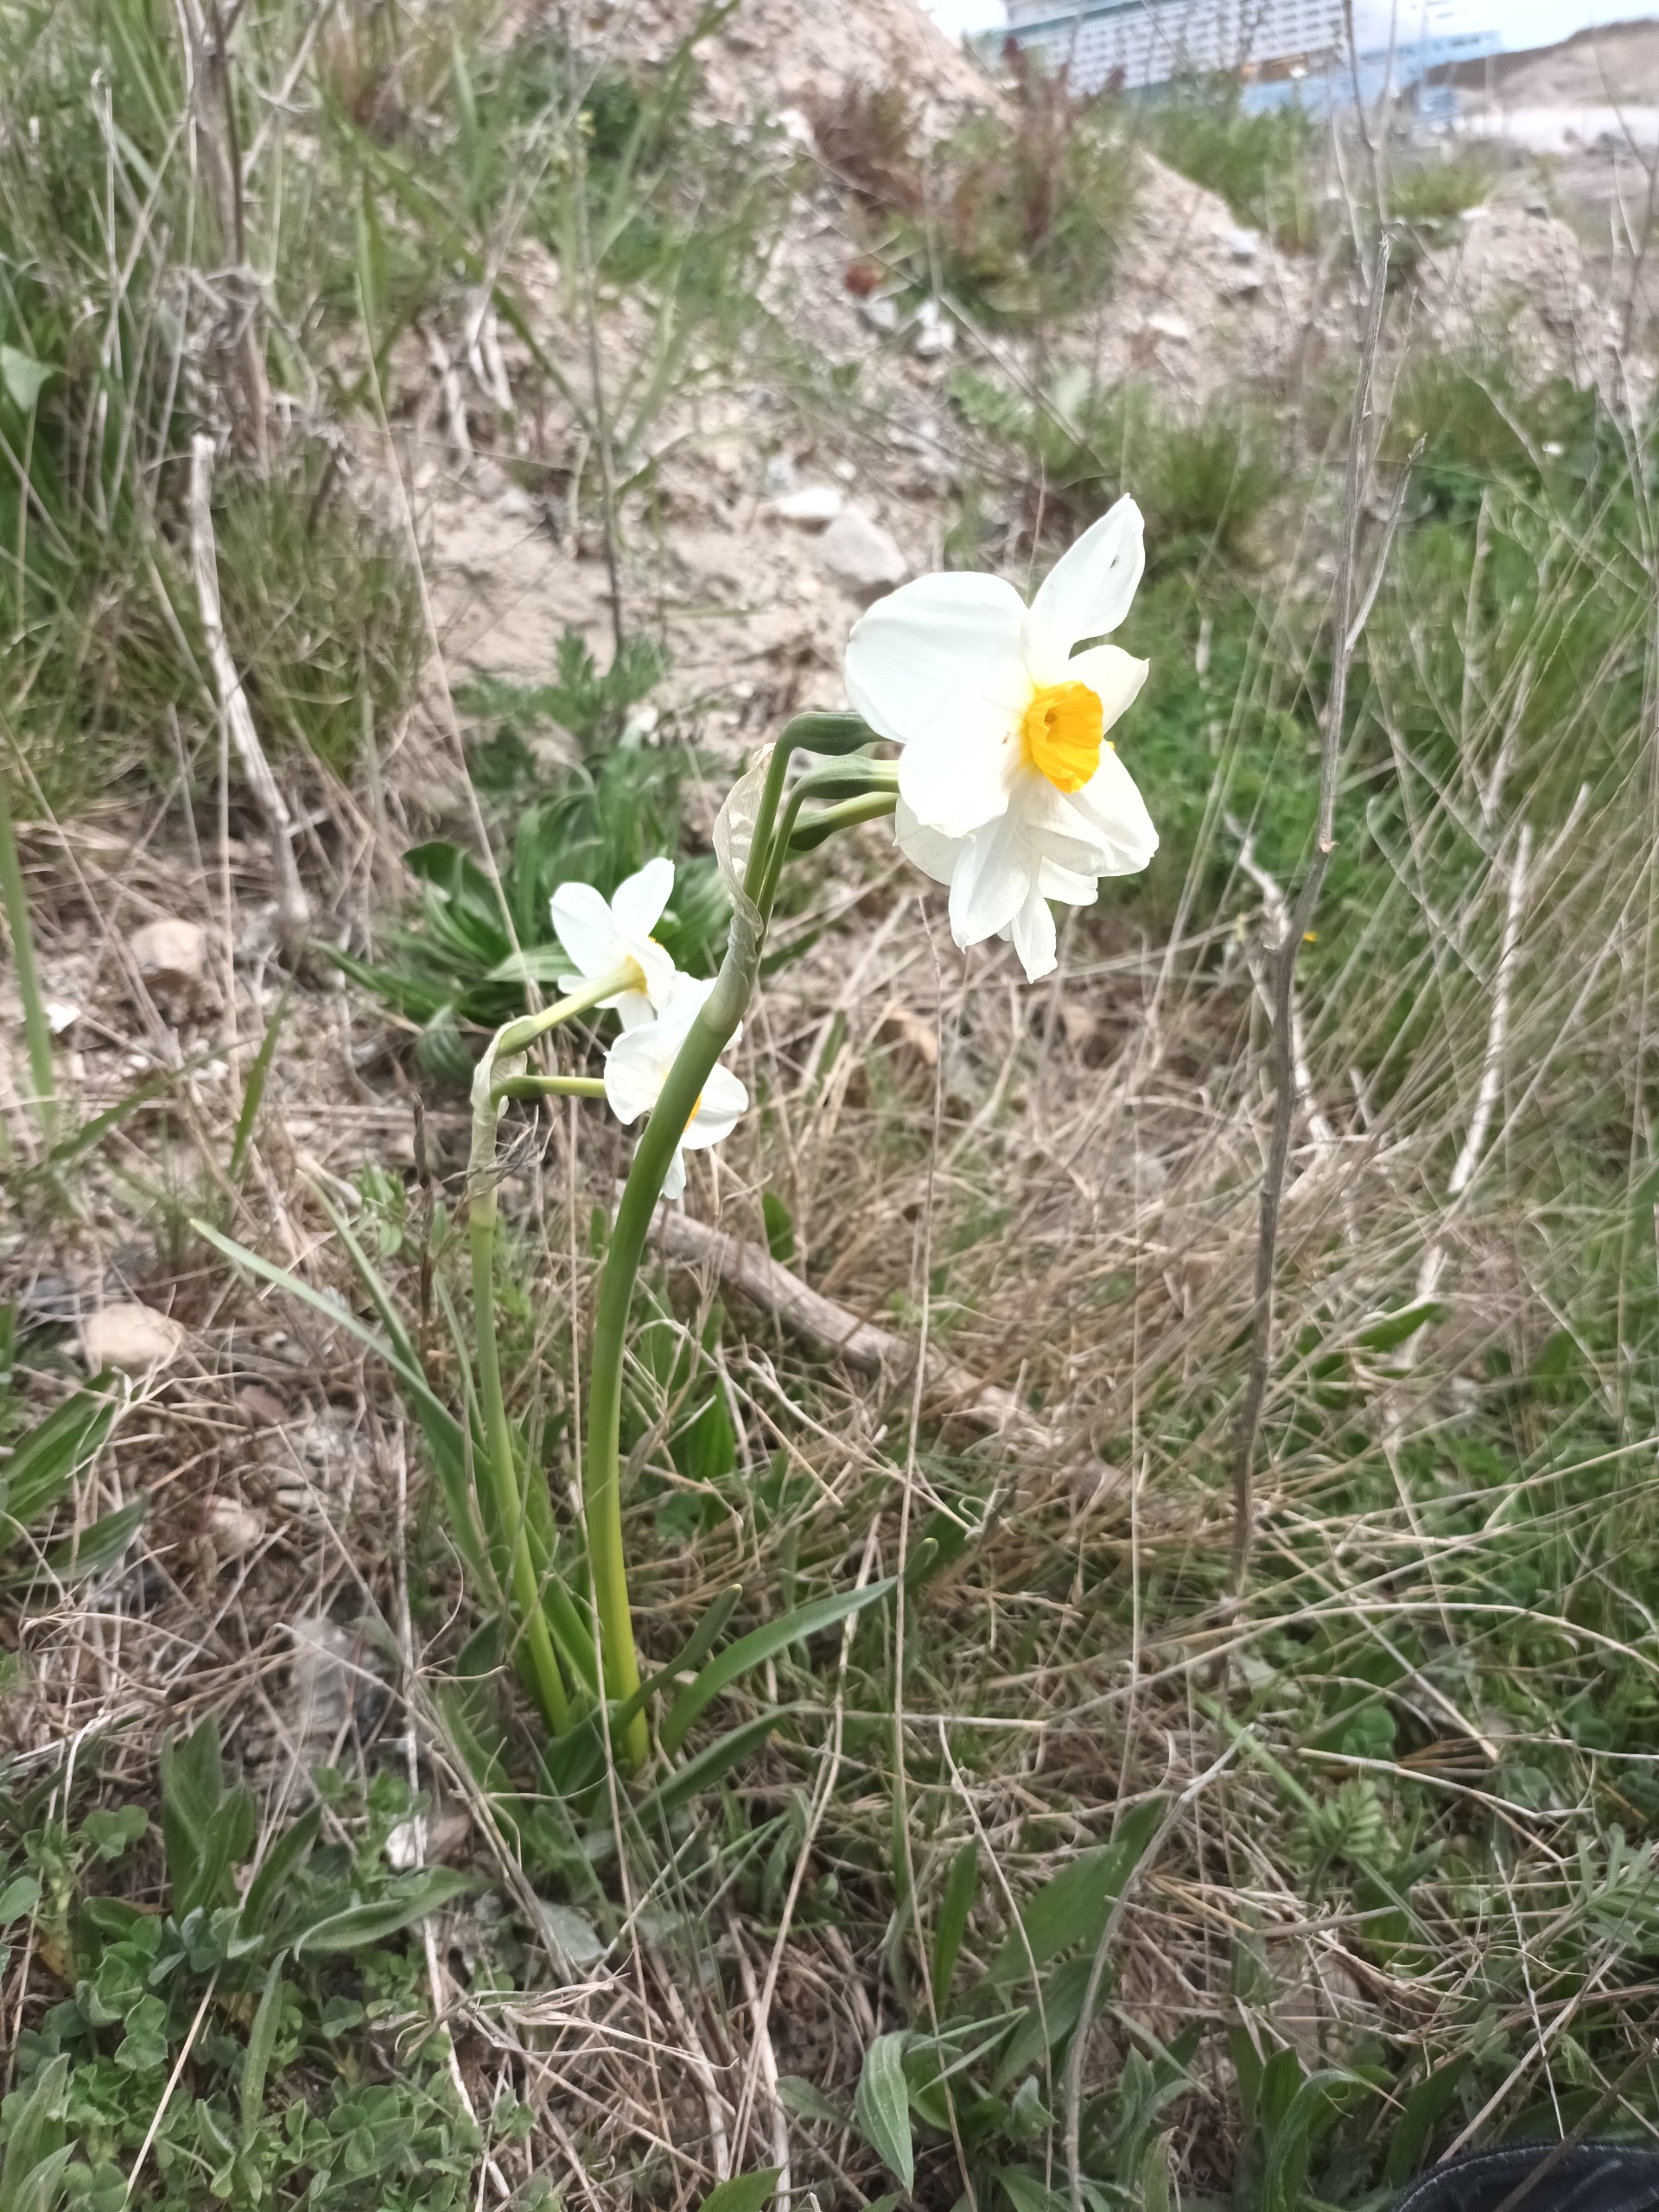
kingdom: Plantae
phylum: Tracheophyta
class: Liliopsida
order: Asparagales
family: Amaryllidaceae
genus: Narcissus
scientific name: Narcissus tazetta
